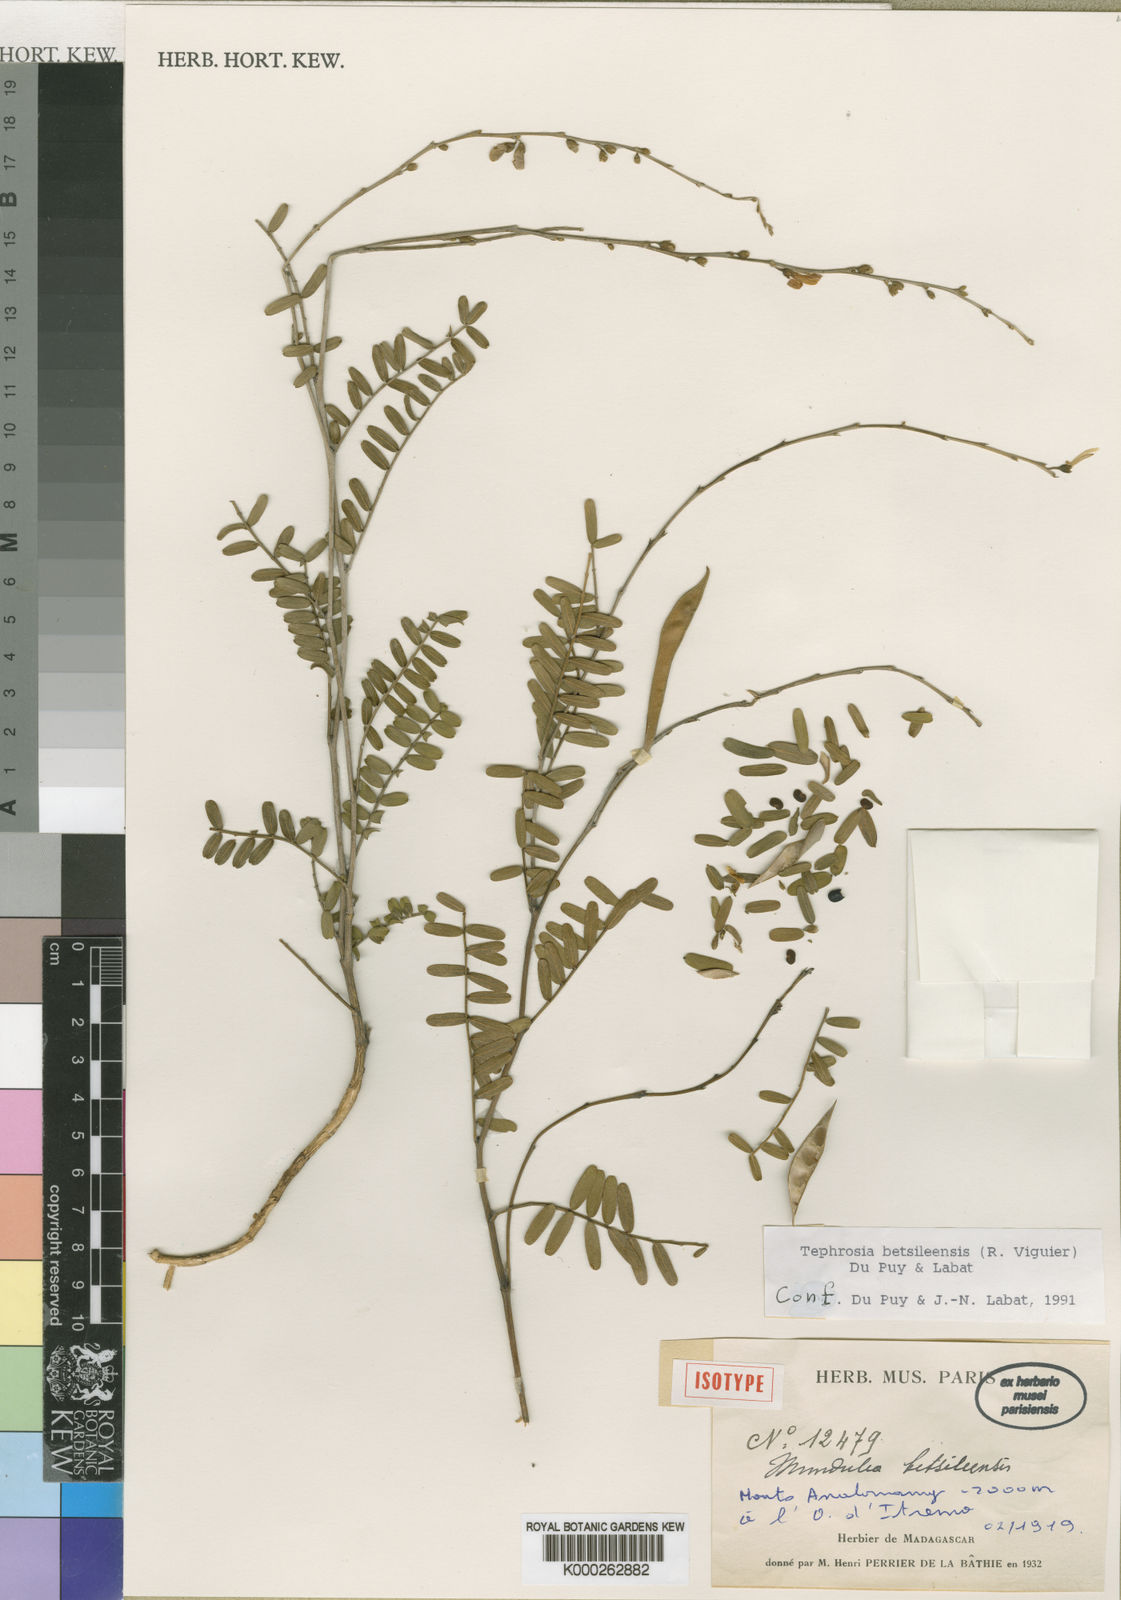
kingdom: Plantae
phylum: Tracheophyta
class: Magnoliopsida
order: Fabales
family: Fabaceae
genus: Tephrosia
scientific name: Tephrosia betsileensis
